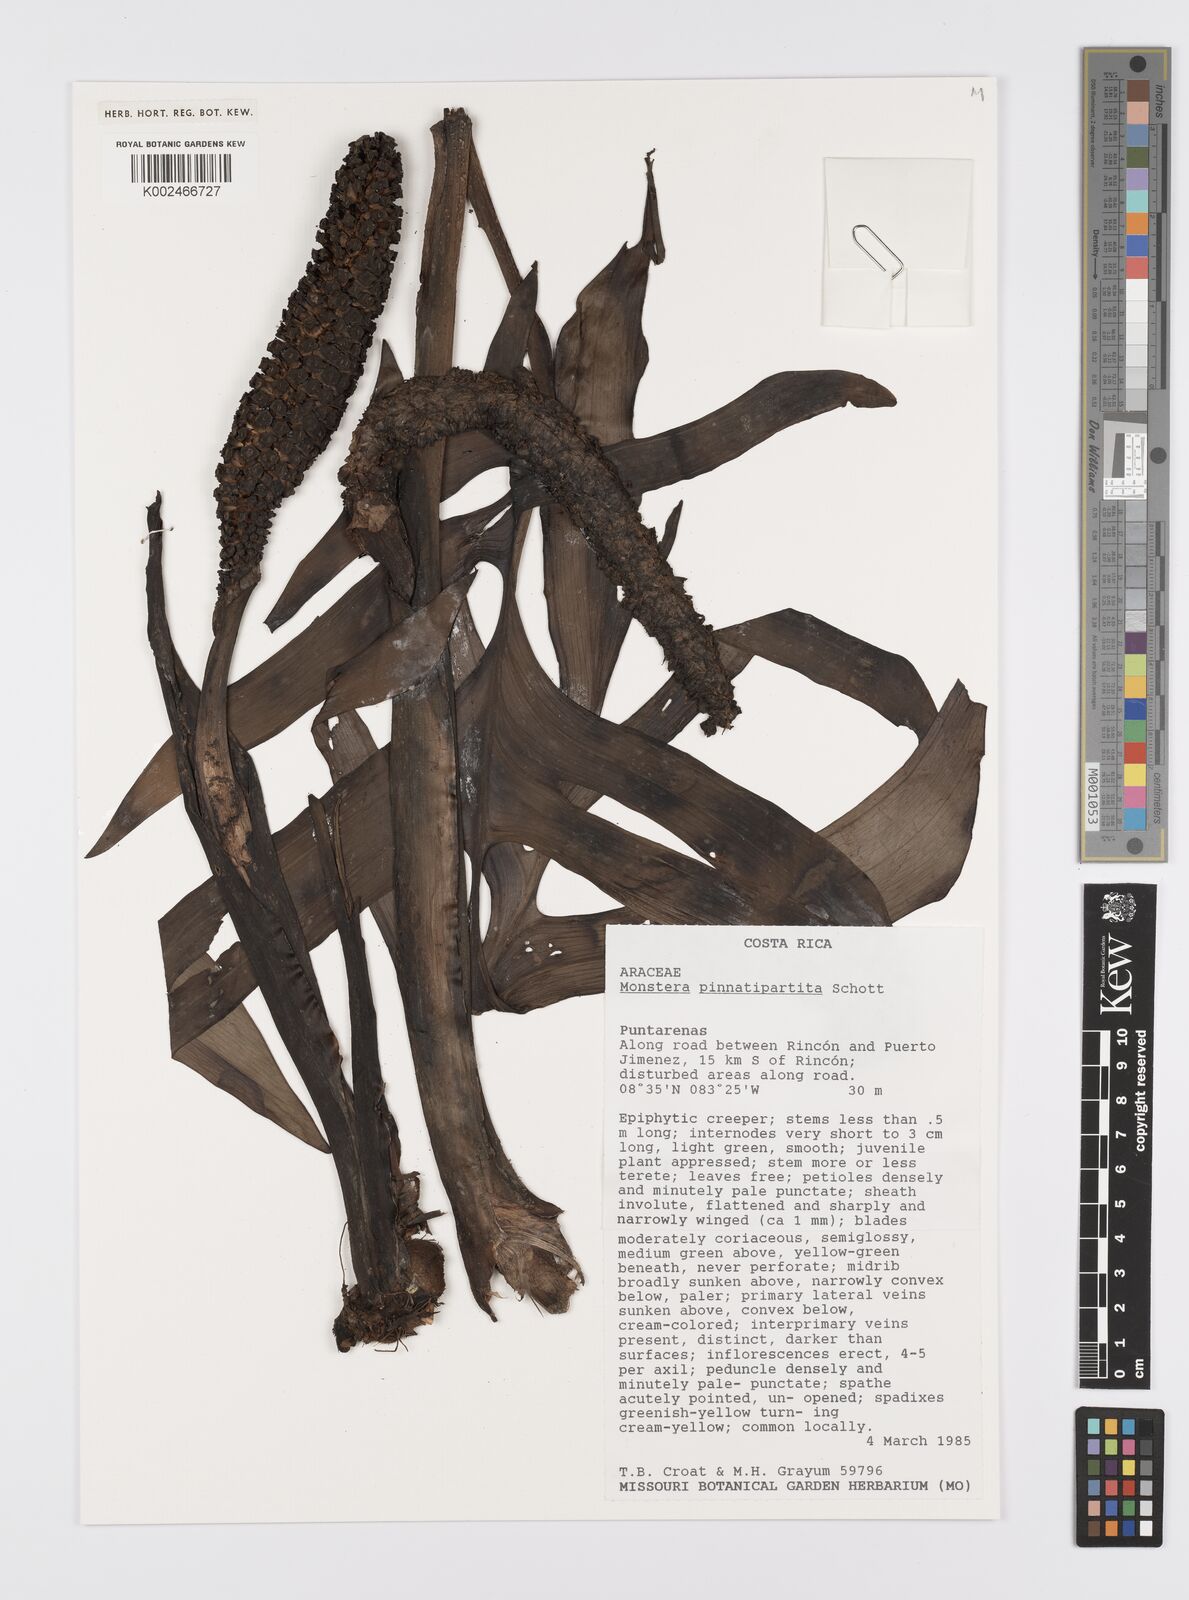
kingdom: Plantae
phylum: Tracheophyta
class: Liliopsida
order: Alismatales
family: Araceae
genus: Monstera
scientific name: Monstera
